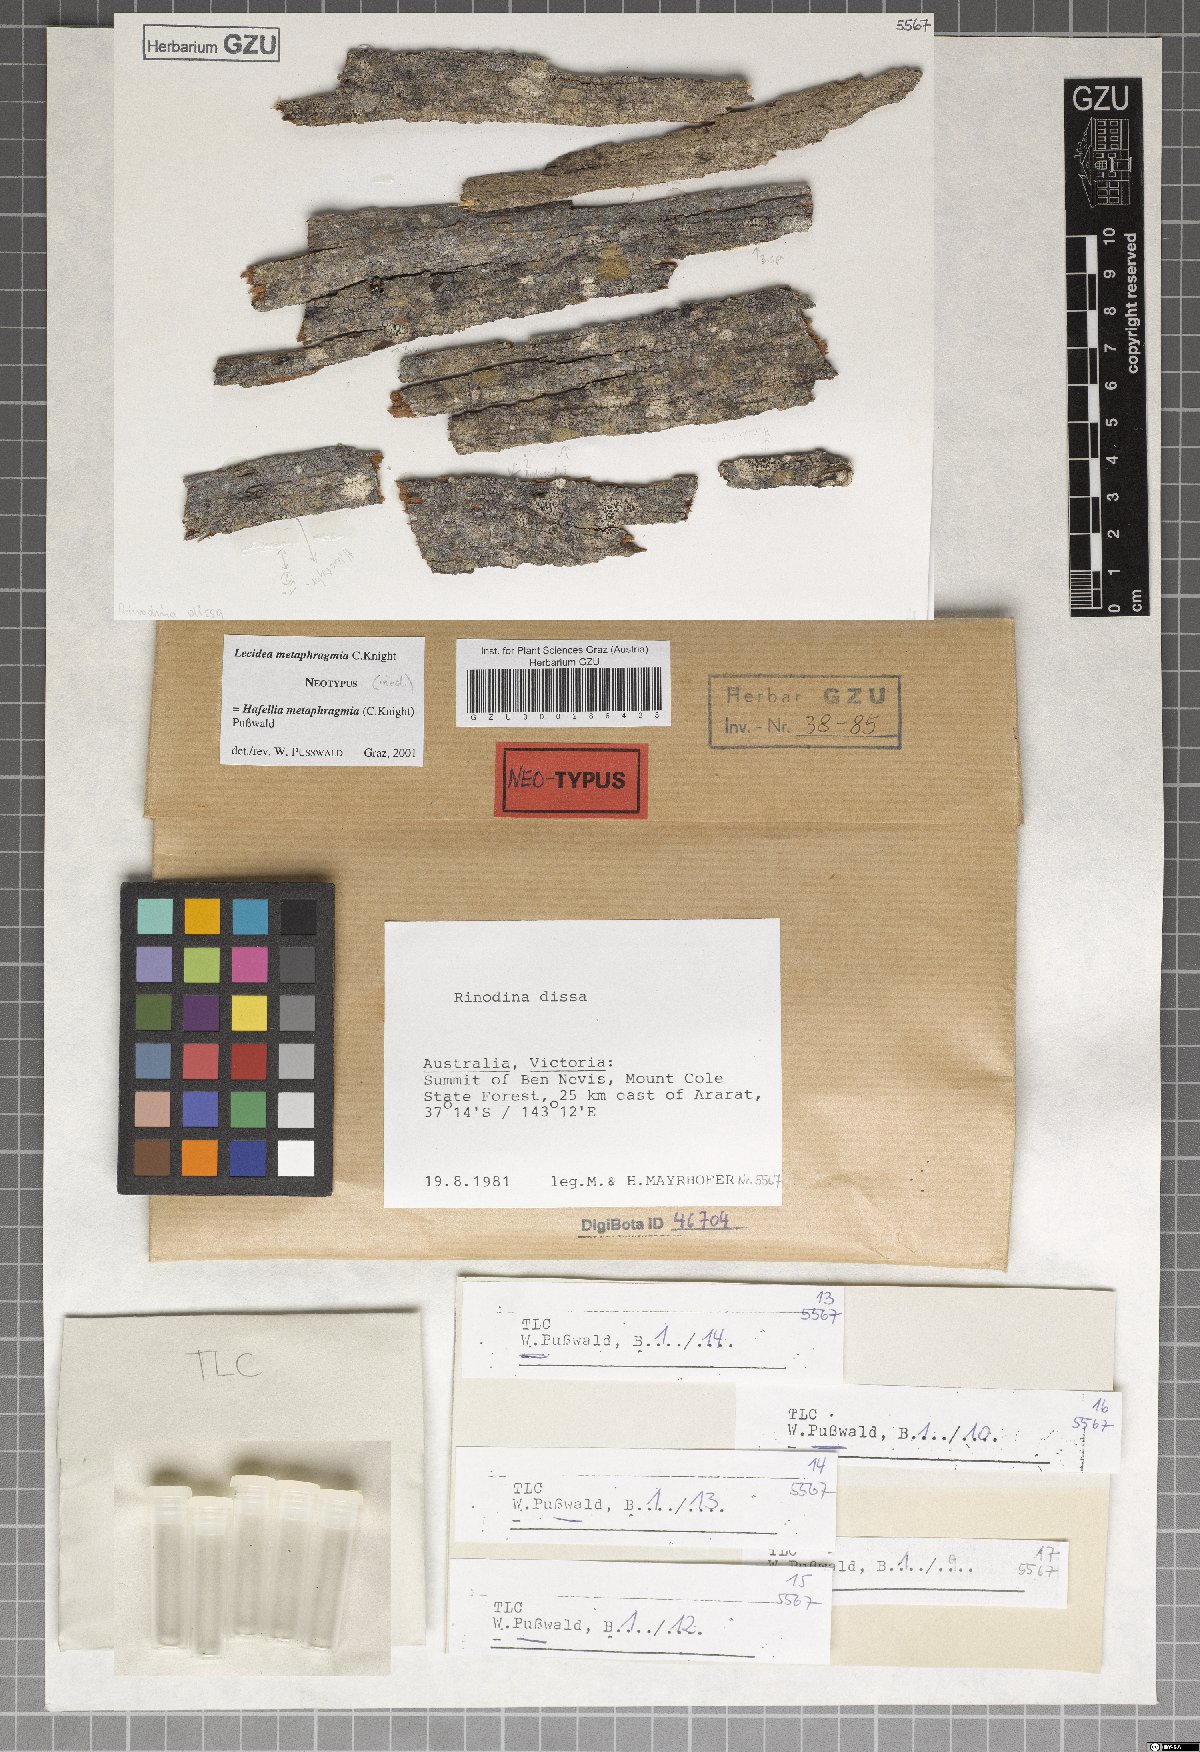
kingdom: Fungi
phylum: Ascomycota
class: Lecanoromycetes
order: Caliciales
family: Caliciaceae
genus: Baculifera
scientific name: Baculifera metaphragmia
